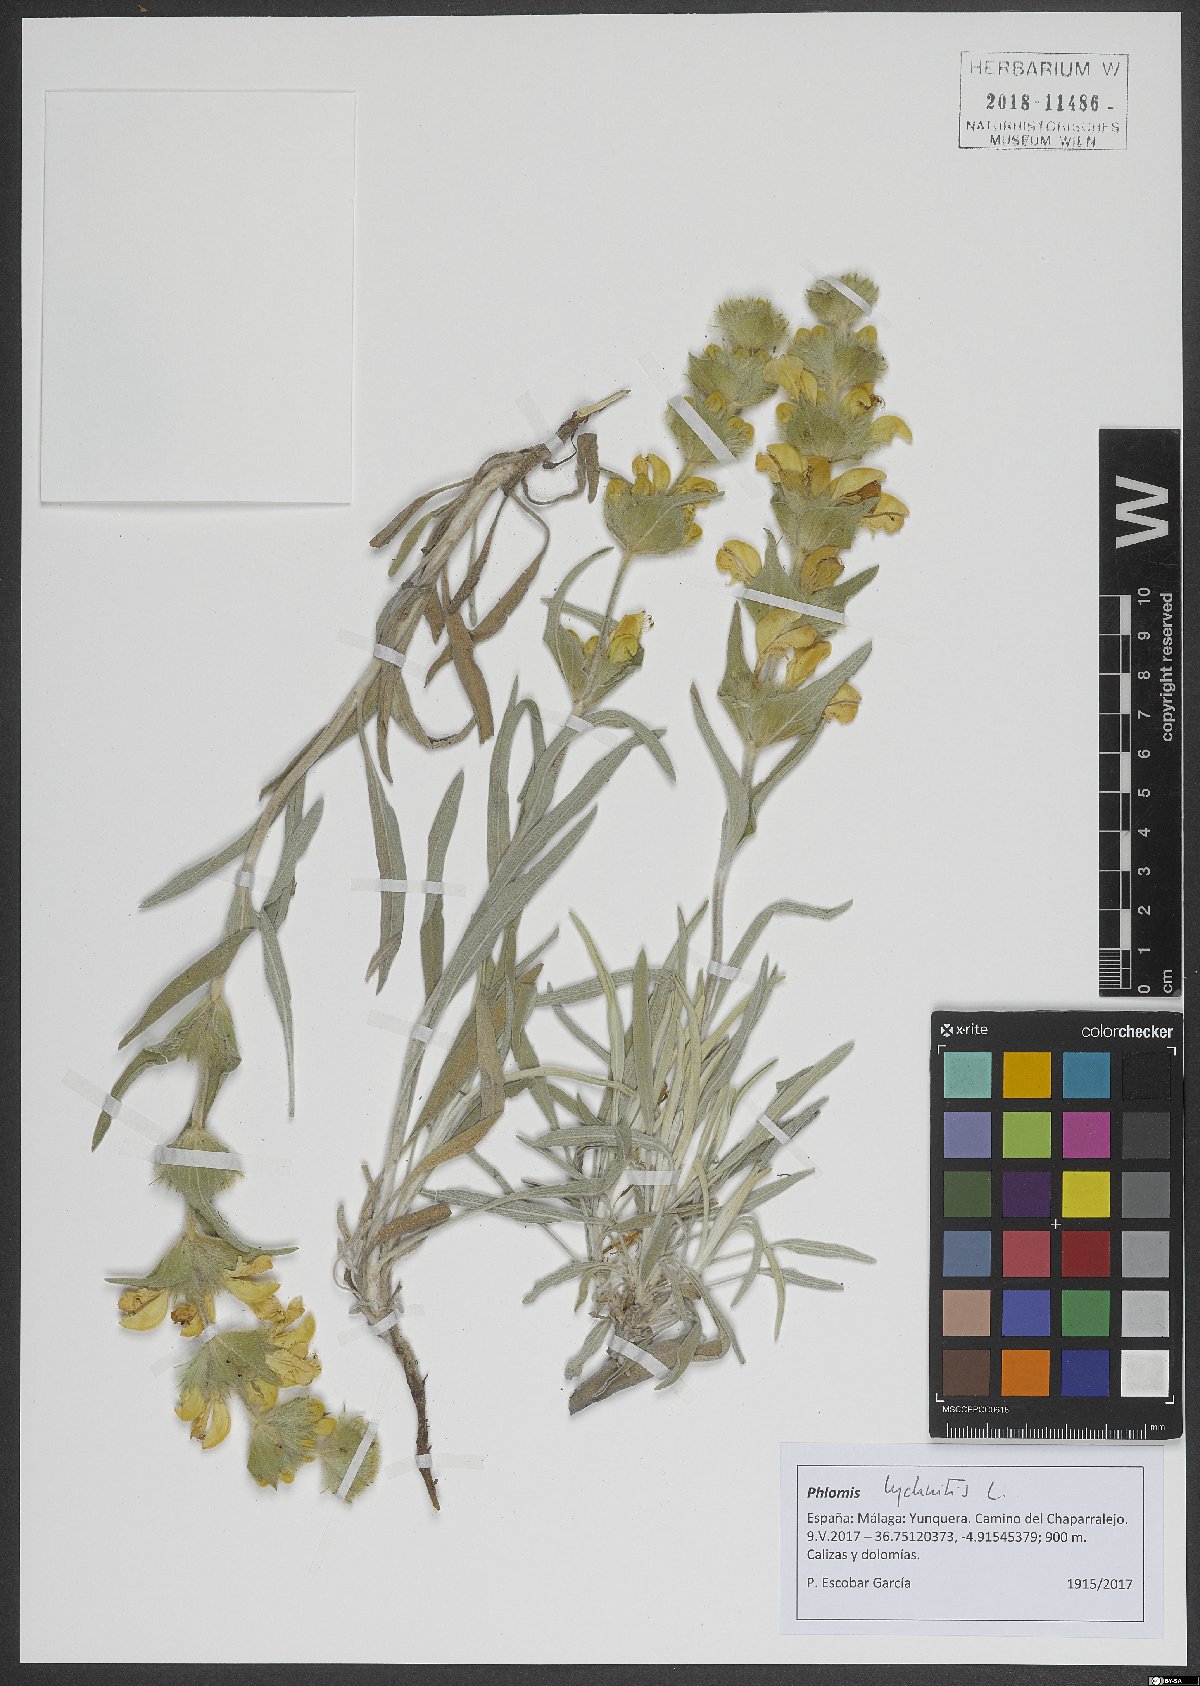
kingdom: Plantae
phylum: Tracheophyta
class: Magnoliopsida
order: Lamiales
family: Lamiaceae
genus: Phlomis
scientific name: Phlomis lychnitis
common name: Lampwickplant
